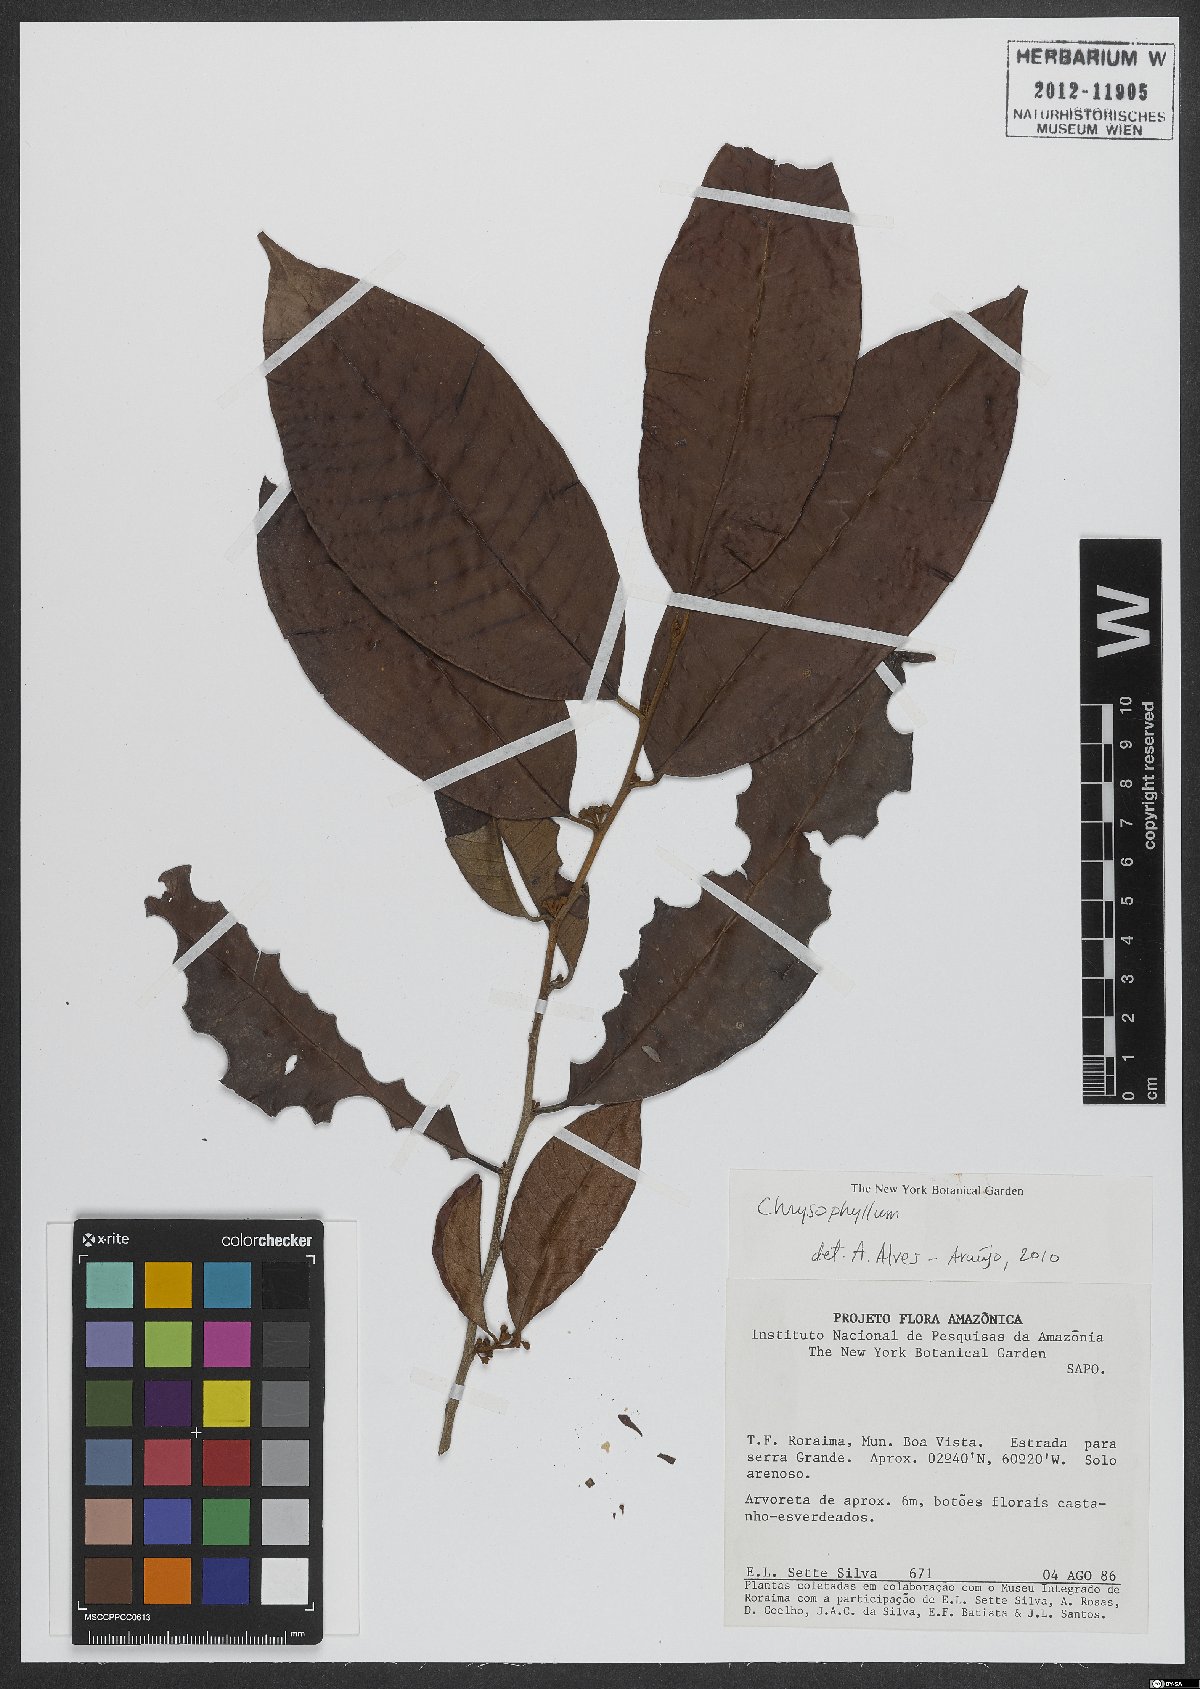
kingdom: Plantae
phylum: Tracheophyta
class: Magnoliopsida
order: Ericales
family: Sapotaceae
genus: Chrysophyllum
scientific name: Chrysophyllum
